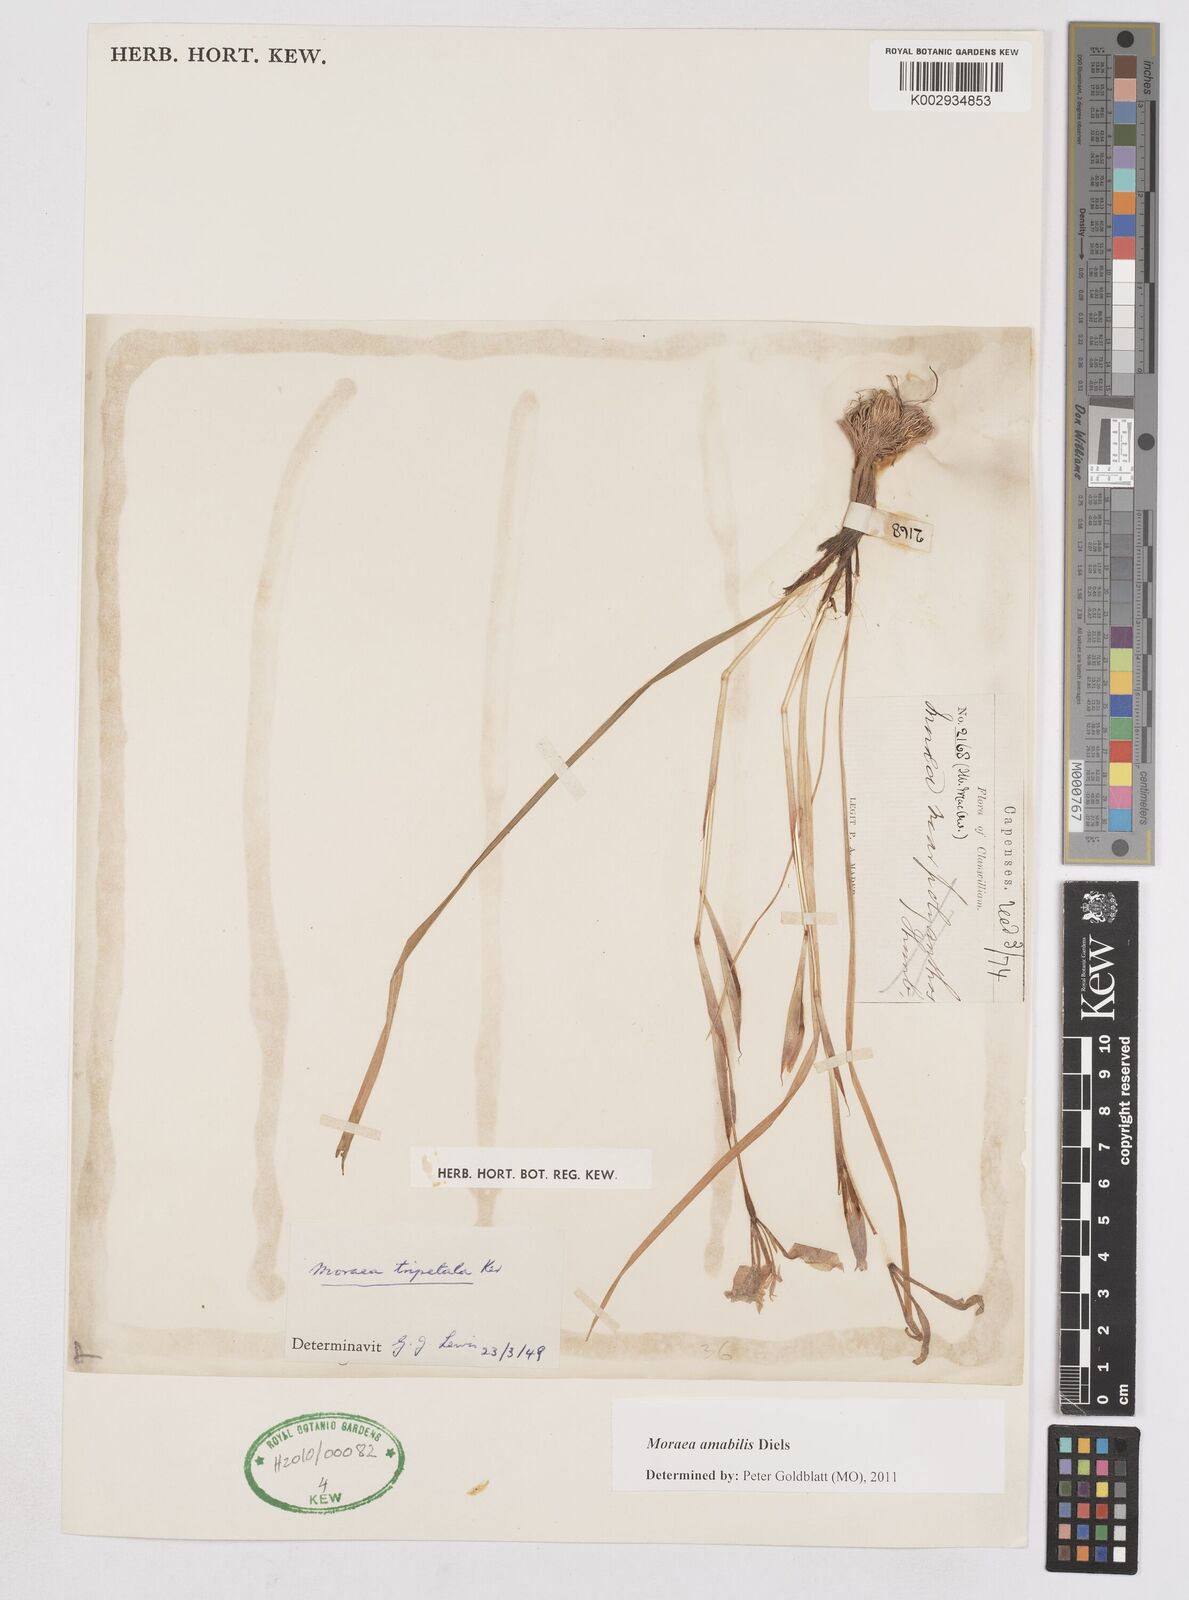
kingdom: Plantae
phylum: Tracheophyta
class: Liliopsida
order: Asparagales
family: Iridaceae
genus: Moraea
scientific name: Moraea amabilis
